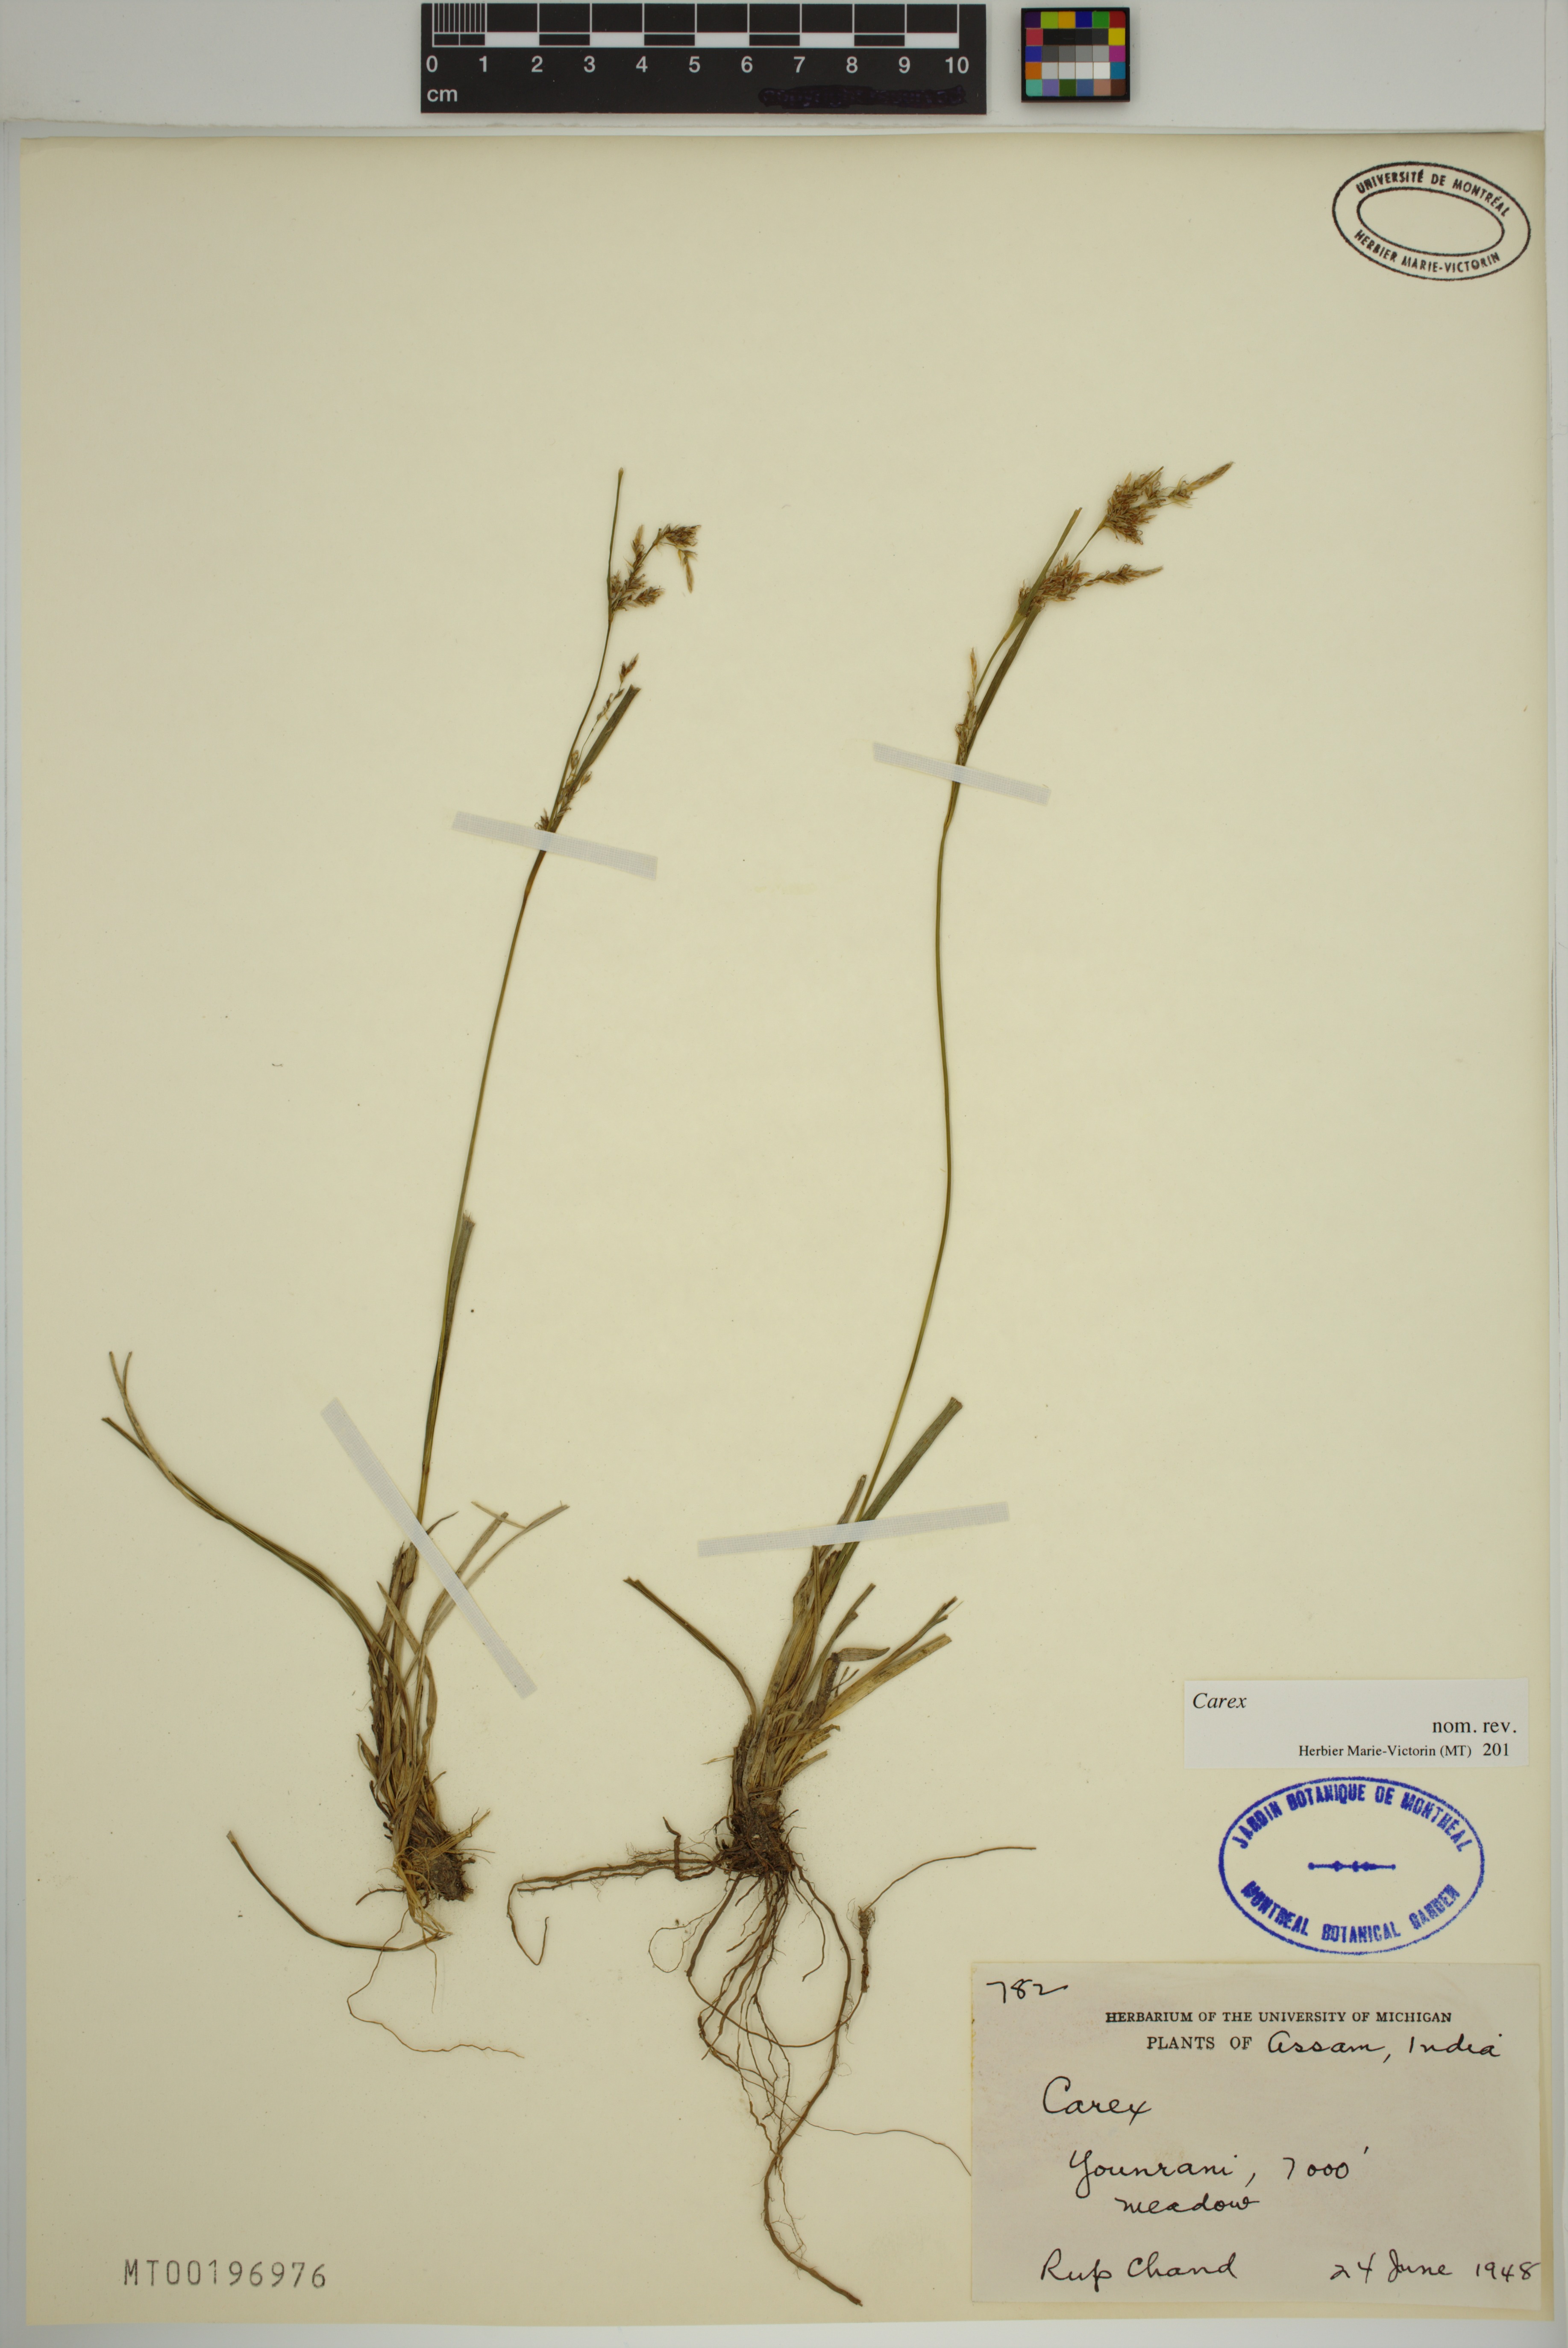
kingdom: Plantae
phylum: Tracheophyta
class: Liliopsida
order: Poales
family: Cyperaceae
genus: Carex
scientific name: Carex
